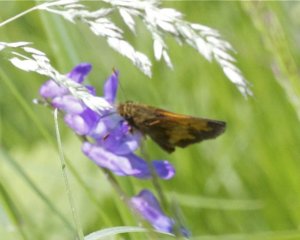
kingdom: Animalia
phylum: Arthropoda
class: Insecta
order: Lepidoptera
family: Hesperiidae
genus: Lon
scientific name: Lon hobomok
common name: Hobomok Skipper
